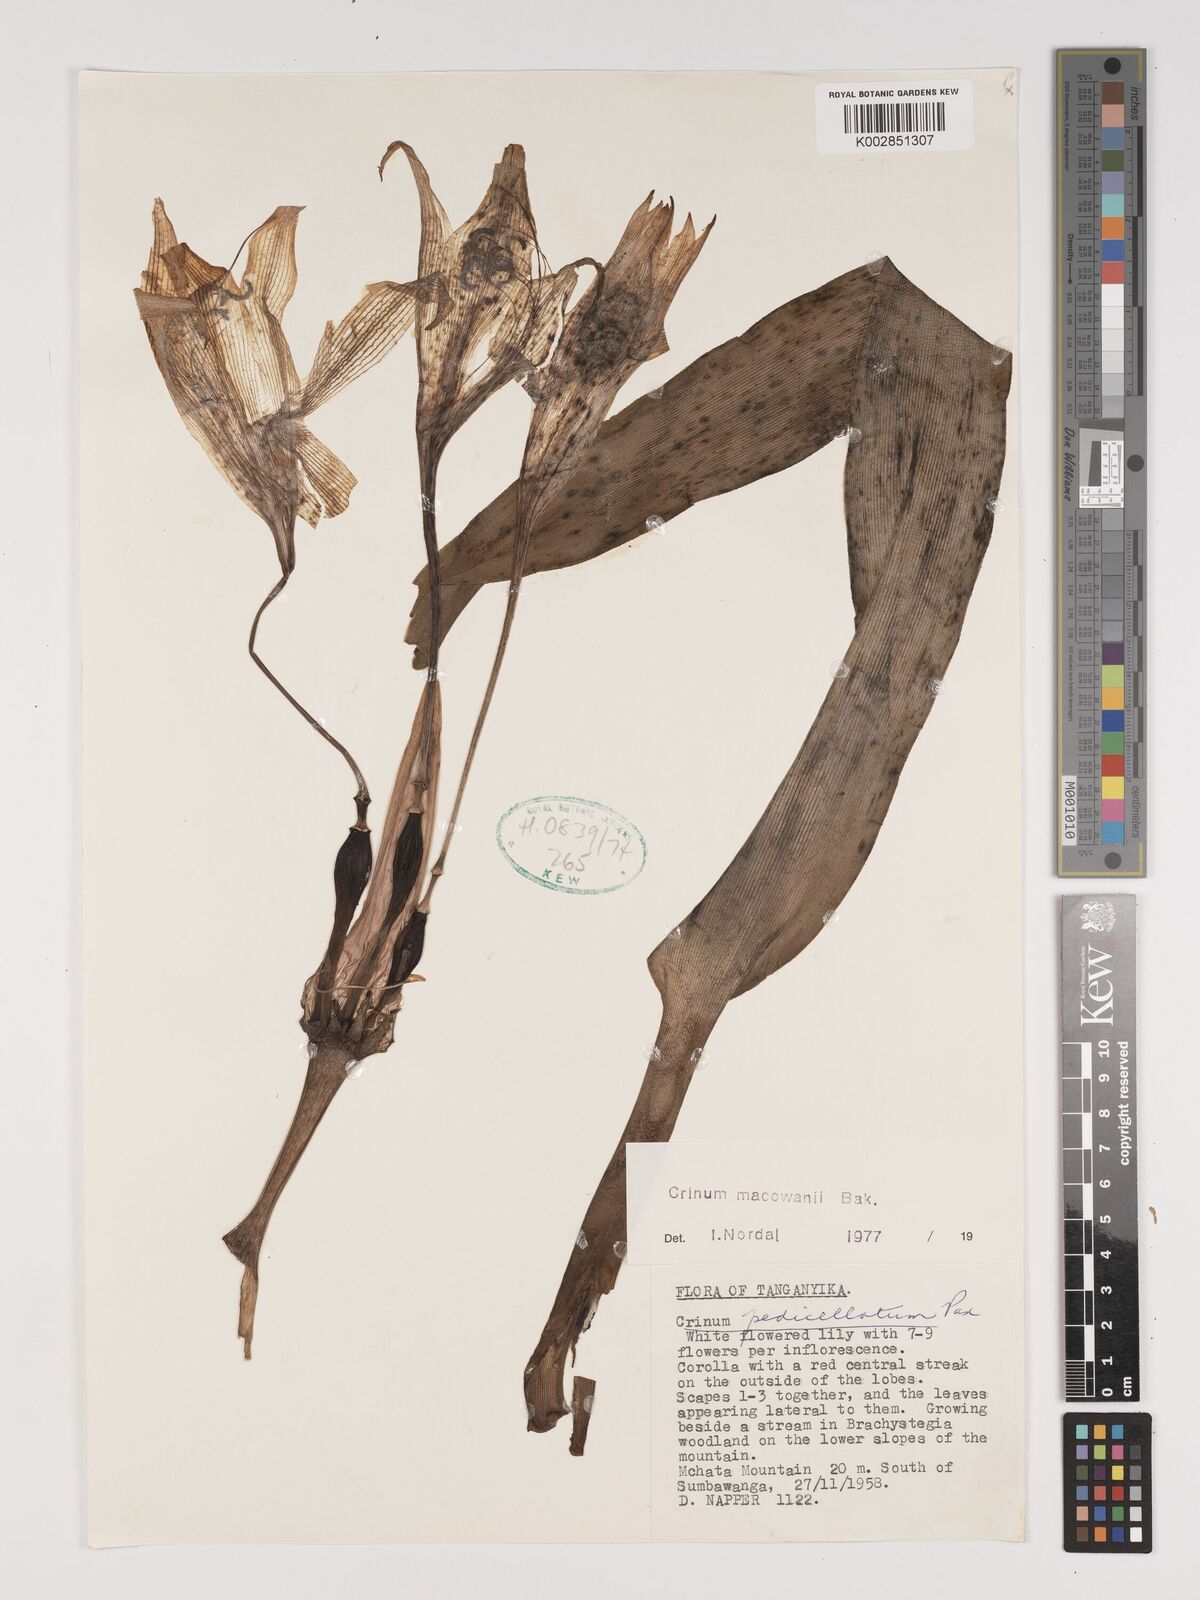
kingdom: Plantae
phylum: Tracheophyta
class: Liliopsida
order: Asparagales
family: Amaryllidaceae
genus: Crinum
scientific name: Crinum macowanii
